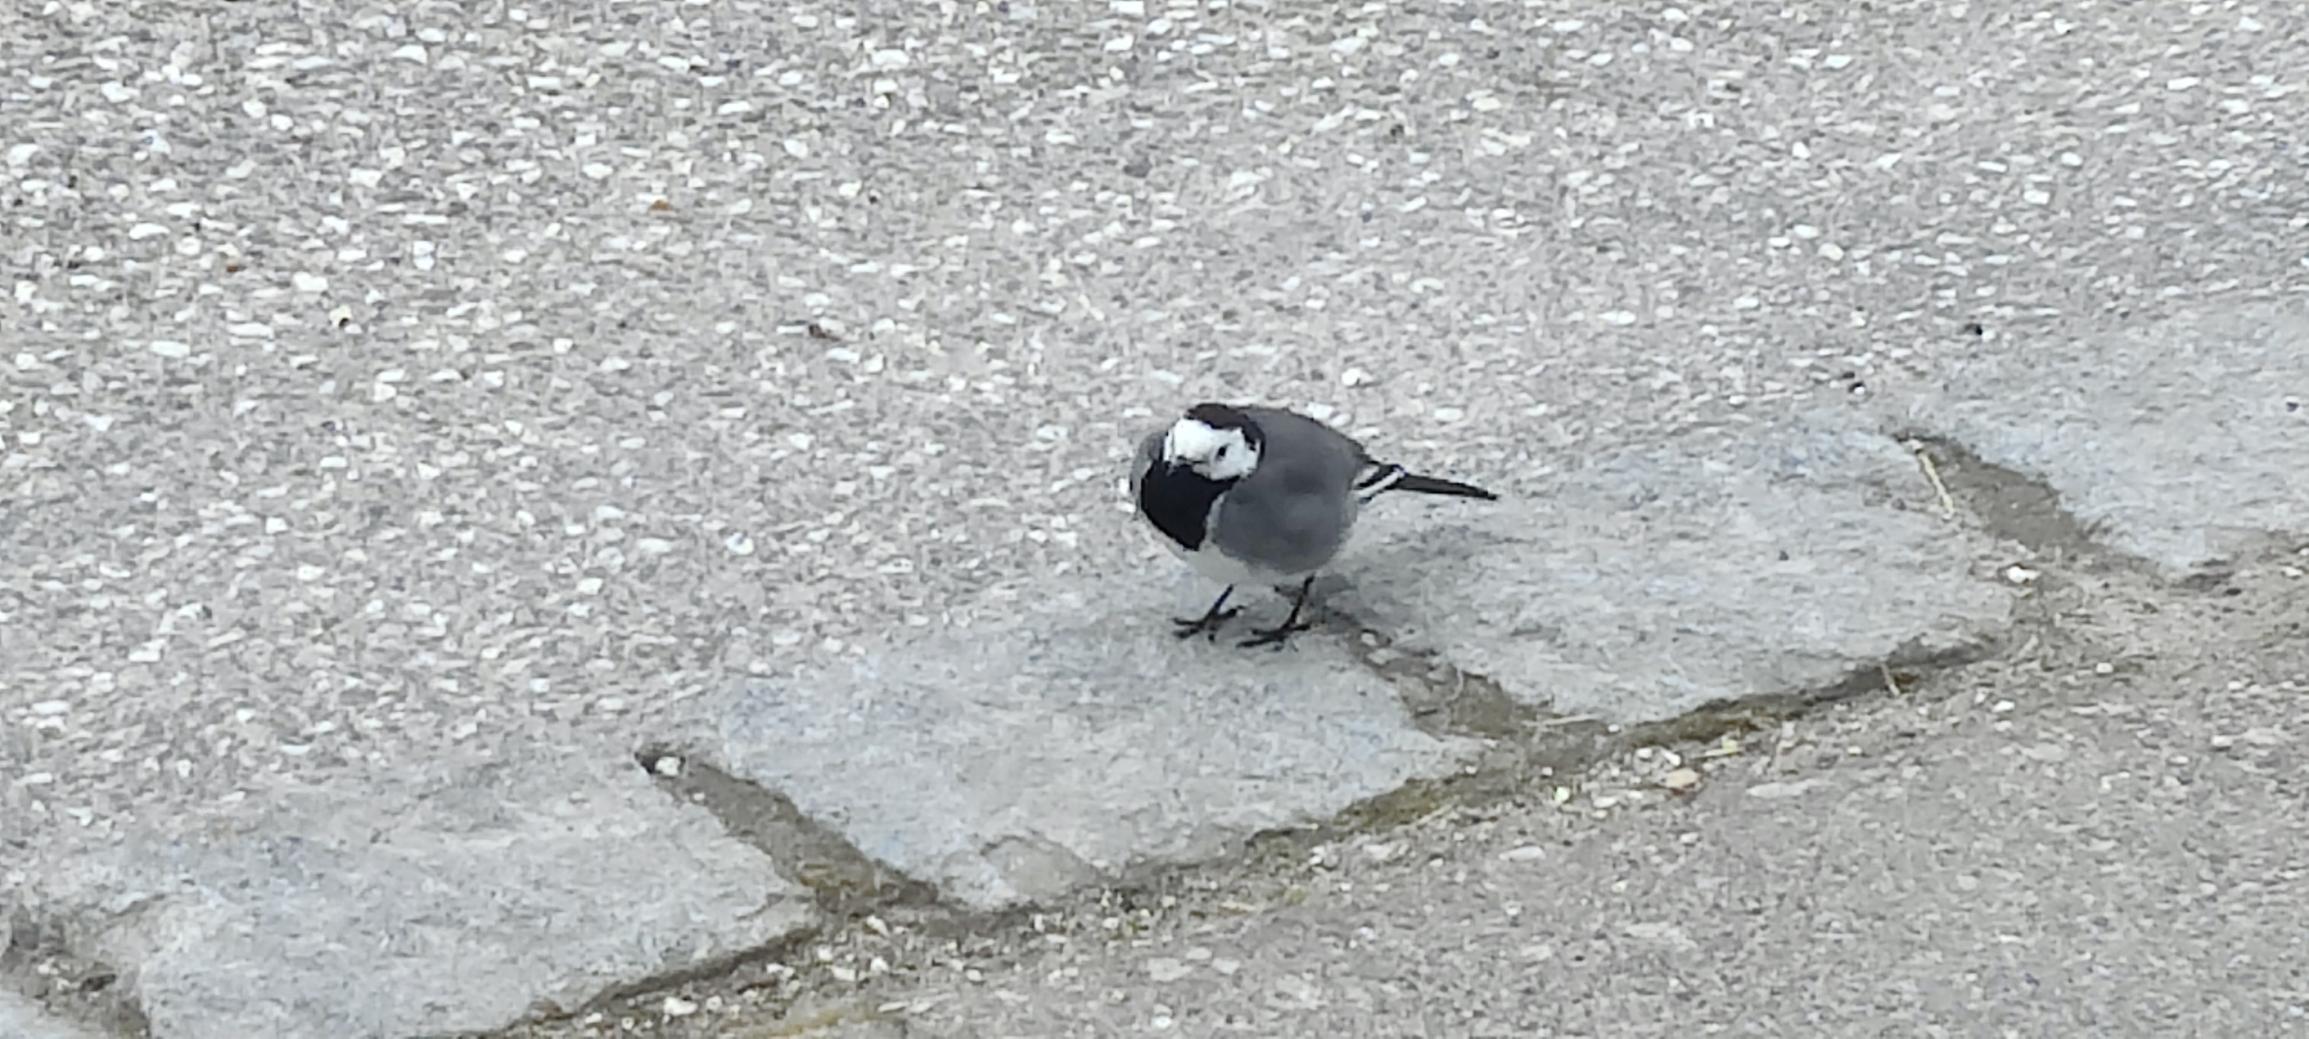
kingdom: Animalia
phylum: Chordata
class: Aves
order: Passeriformes
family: Motacillidae
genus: Motacilla
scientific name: Motacilla alba
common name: Hvid vipstjert
